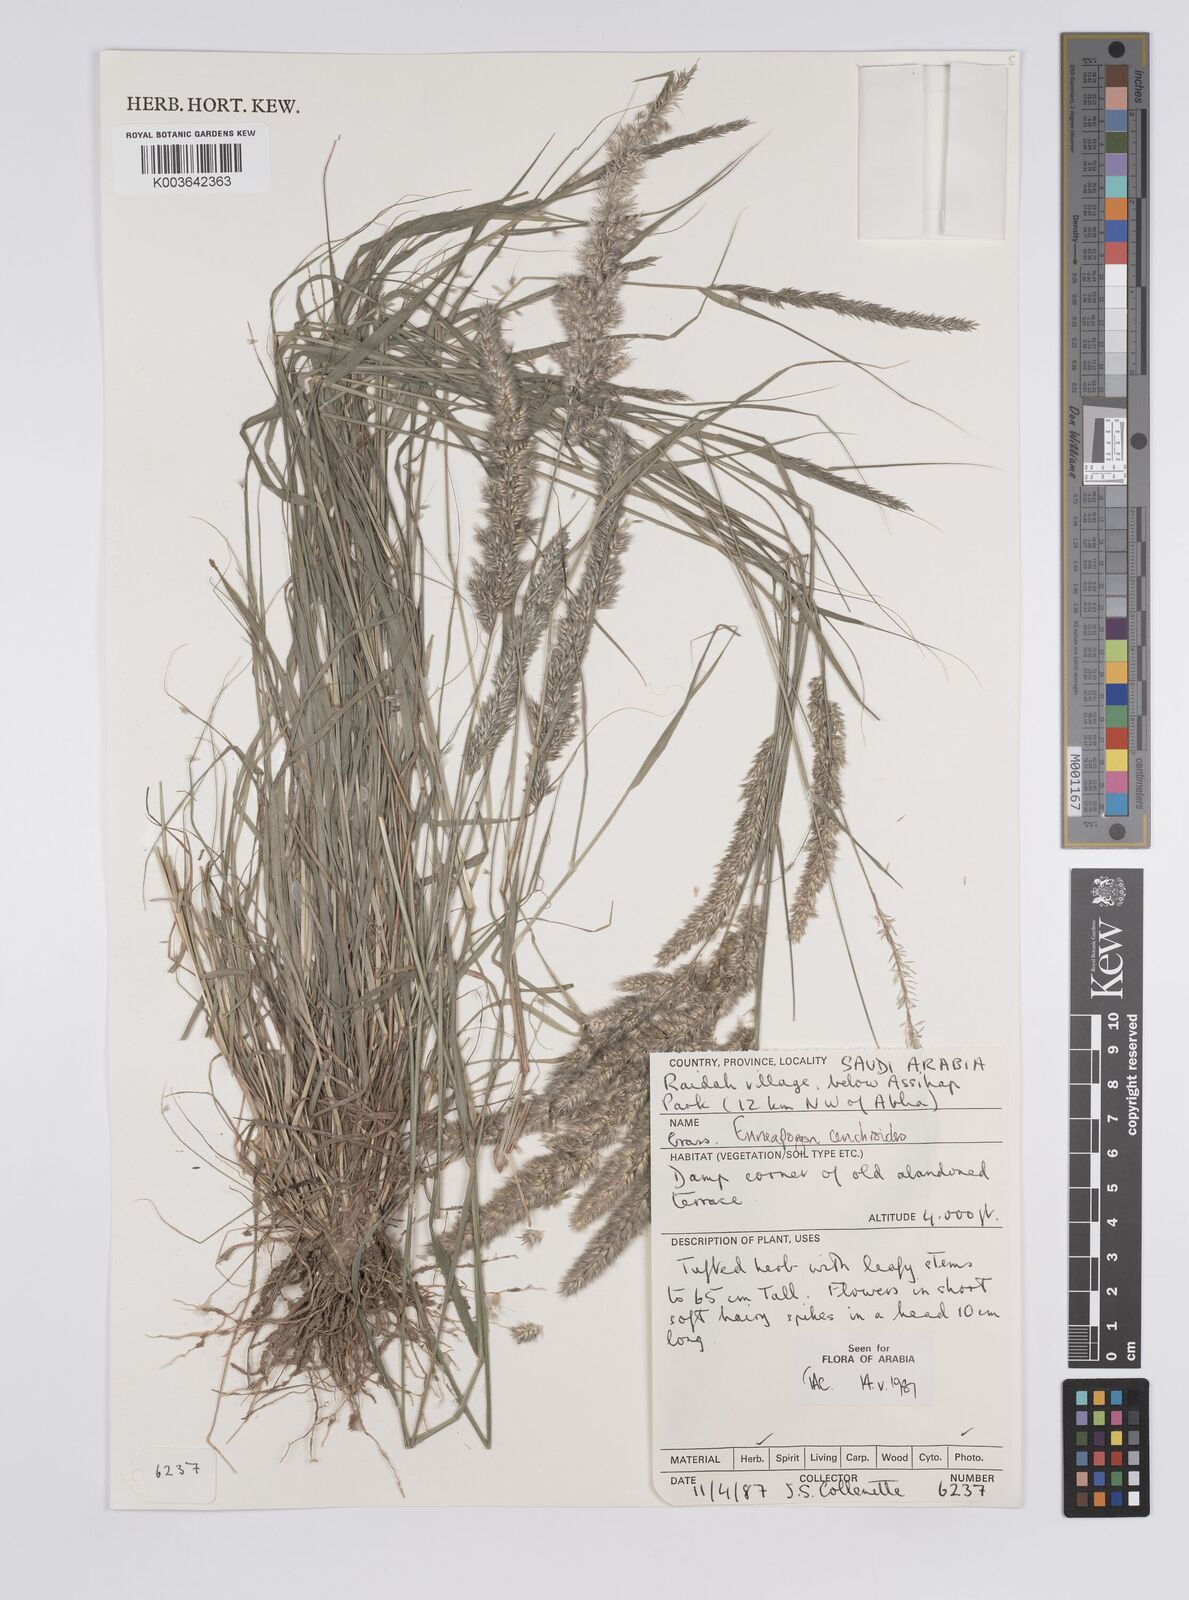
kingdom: Plantae
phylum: Tracheophyta
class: Liliopsida
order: Poales
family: Poaceae
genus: Enneapogon
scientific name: Enneapogon cenchroides
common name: Soft feather pappusgrass
